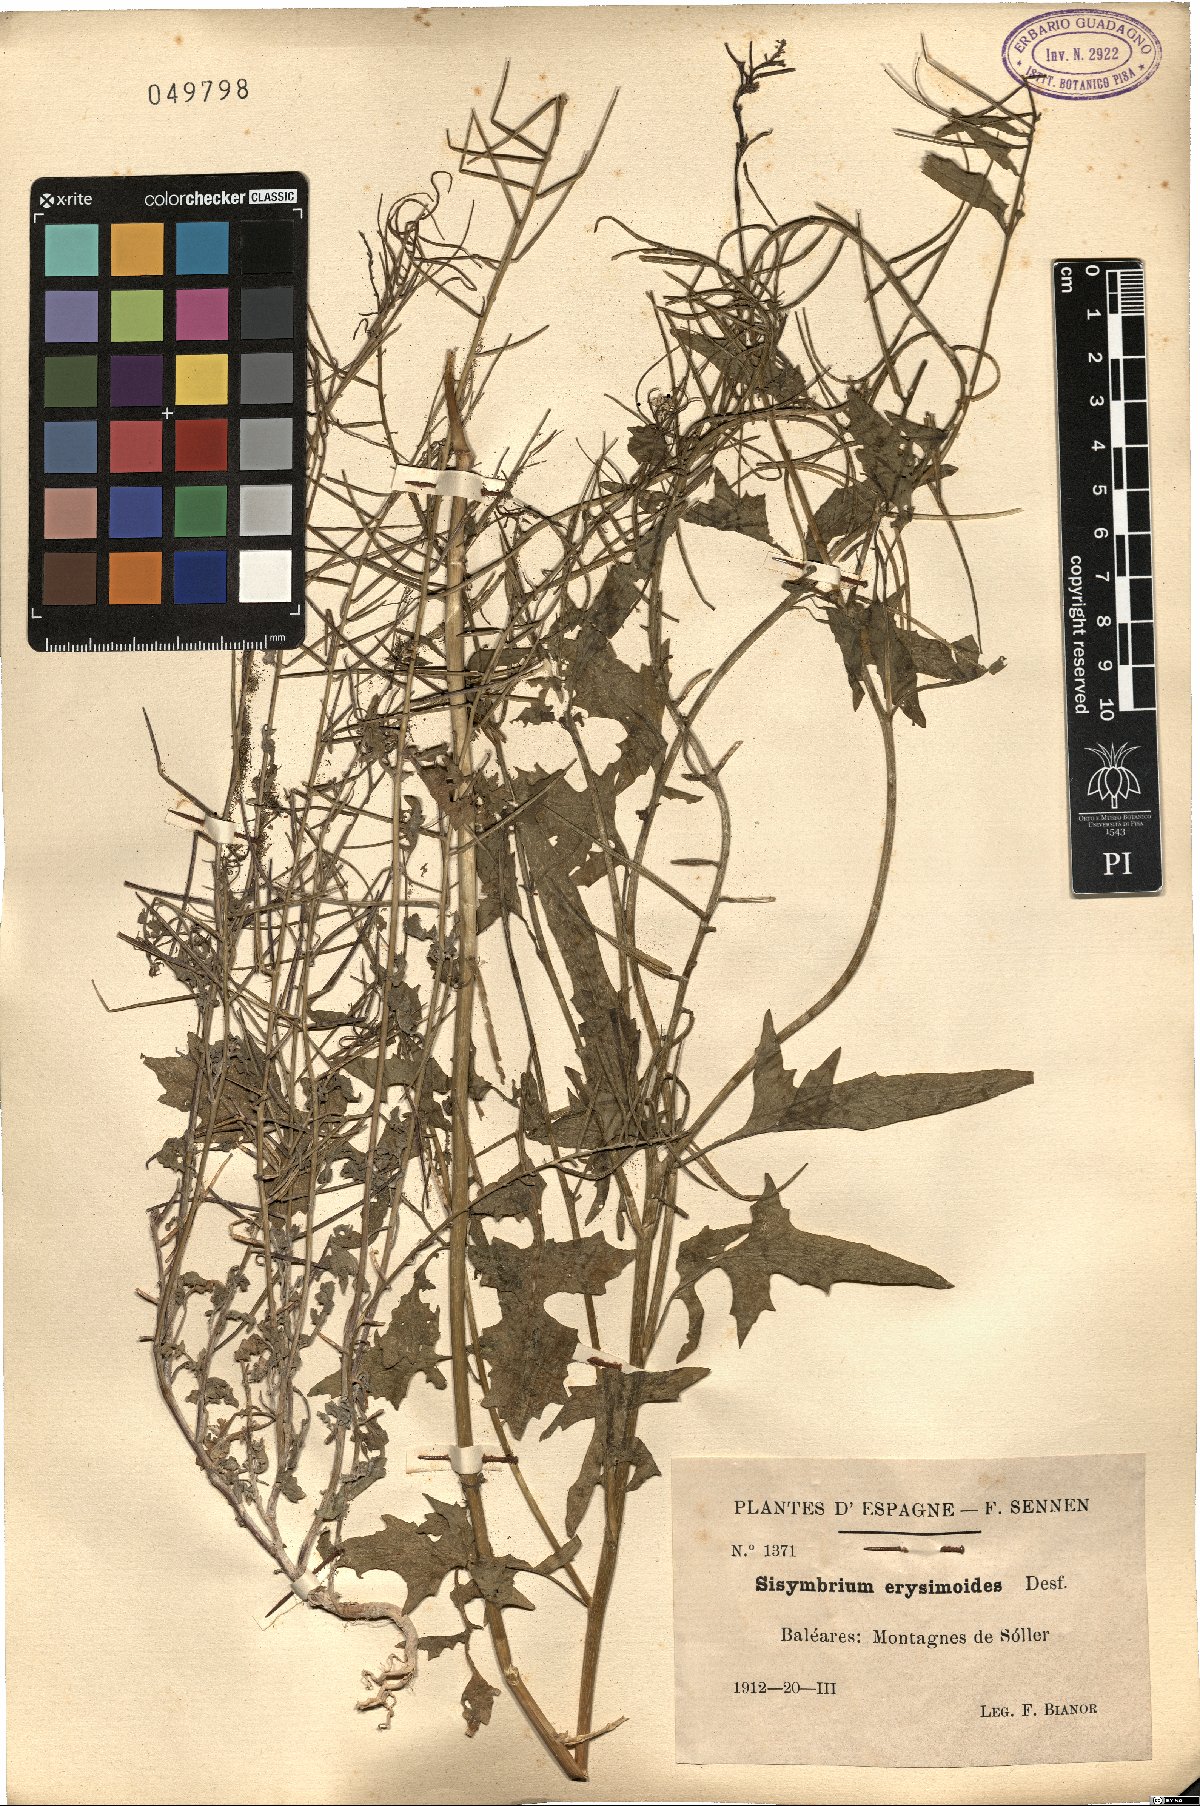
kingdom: Plantae
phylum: Tracheophyta
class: Magnoliopsida
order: Brassicales
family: Brassicaceae
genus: Sisymbrium
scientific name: Sisymbrium erysimoides
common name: French rocket
